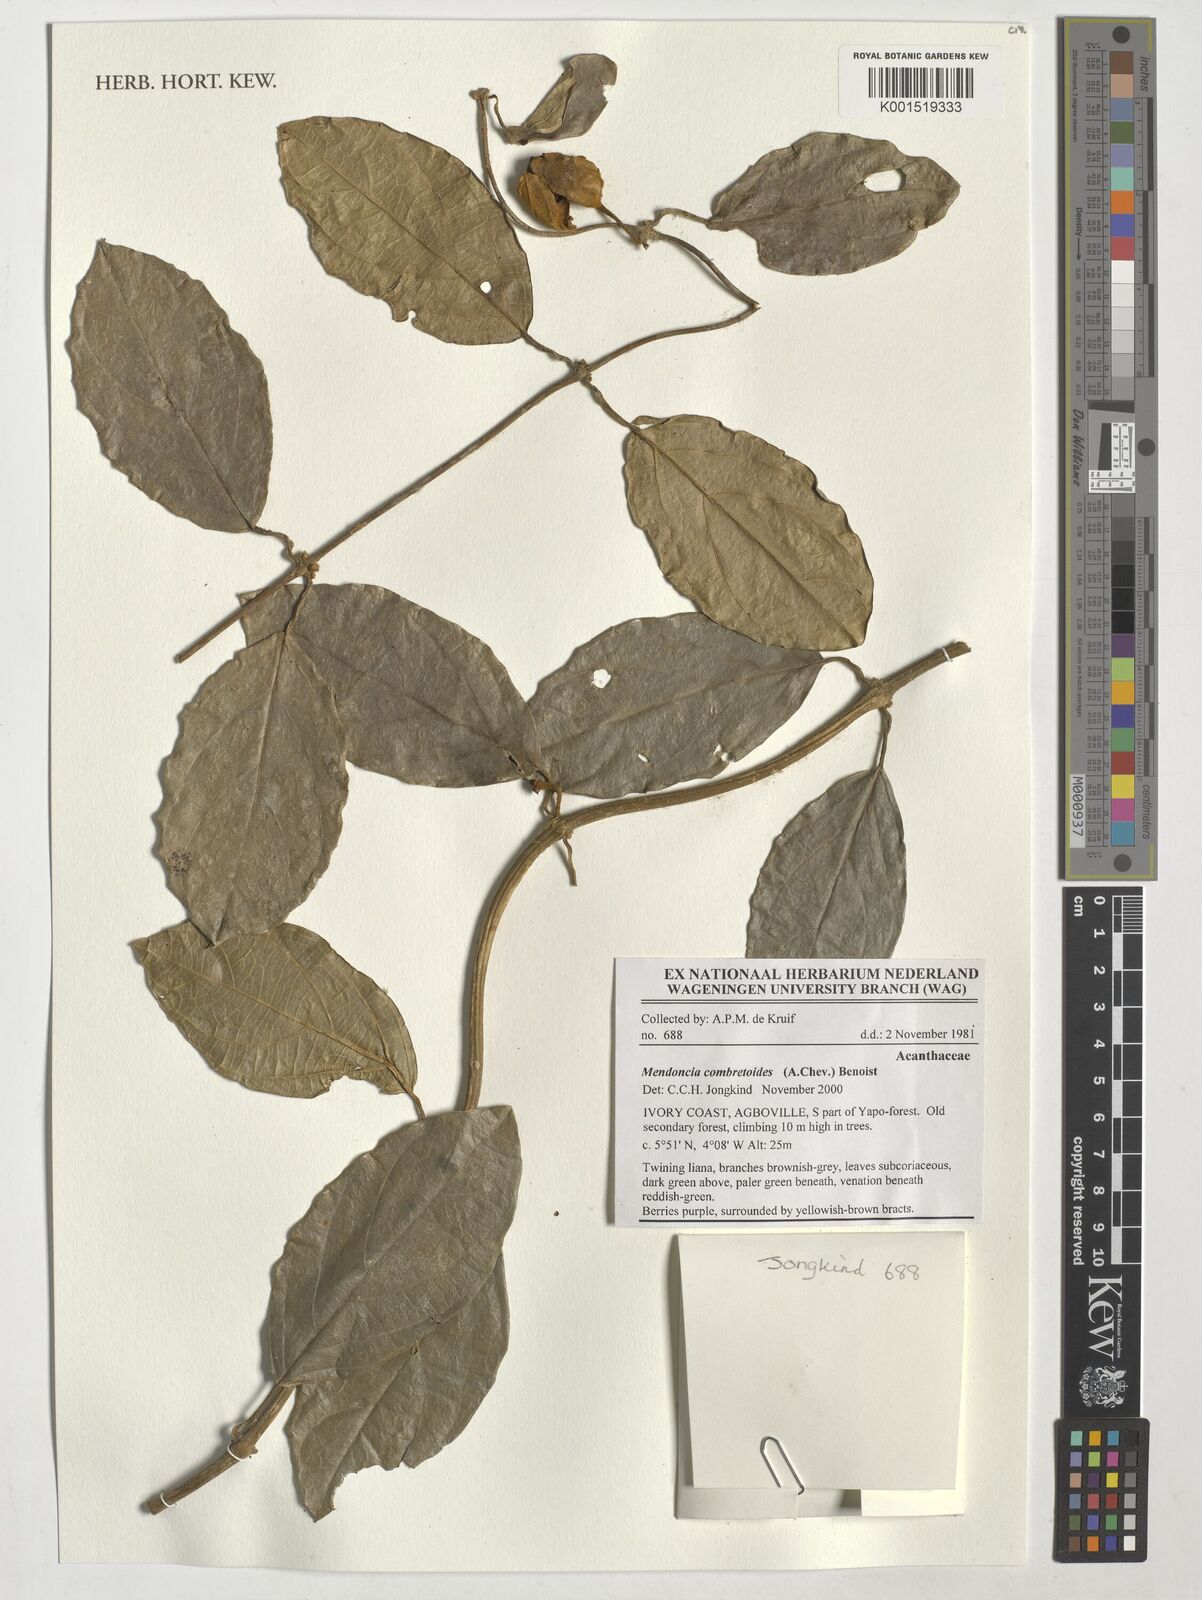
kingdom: Plantae
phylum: Tracheophyta
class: Magnoliopsida
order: Lamiales
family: Acanthaceae
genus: Mendoncia
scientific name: Mendoncia combretoides
